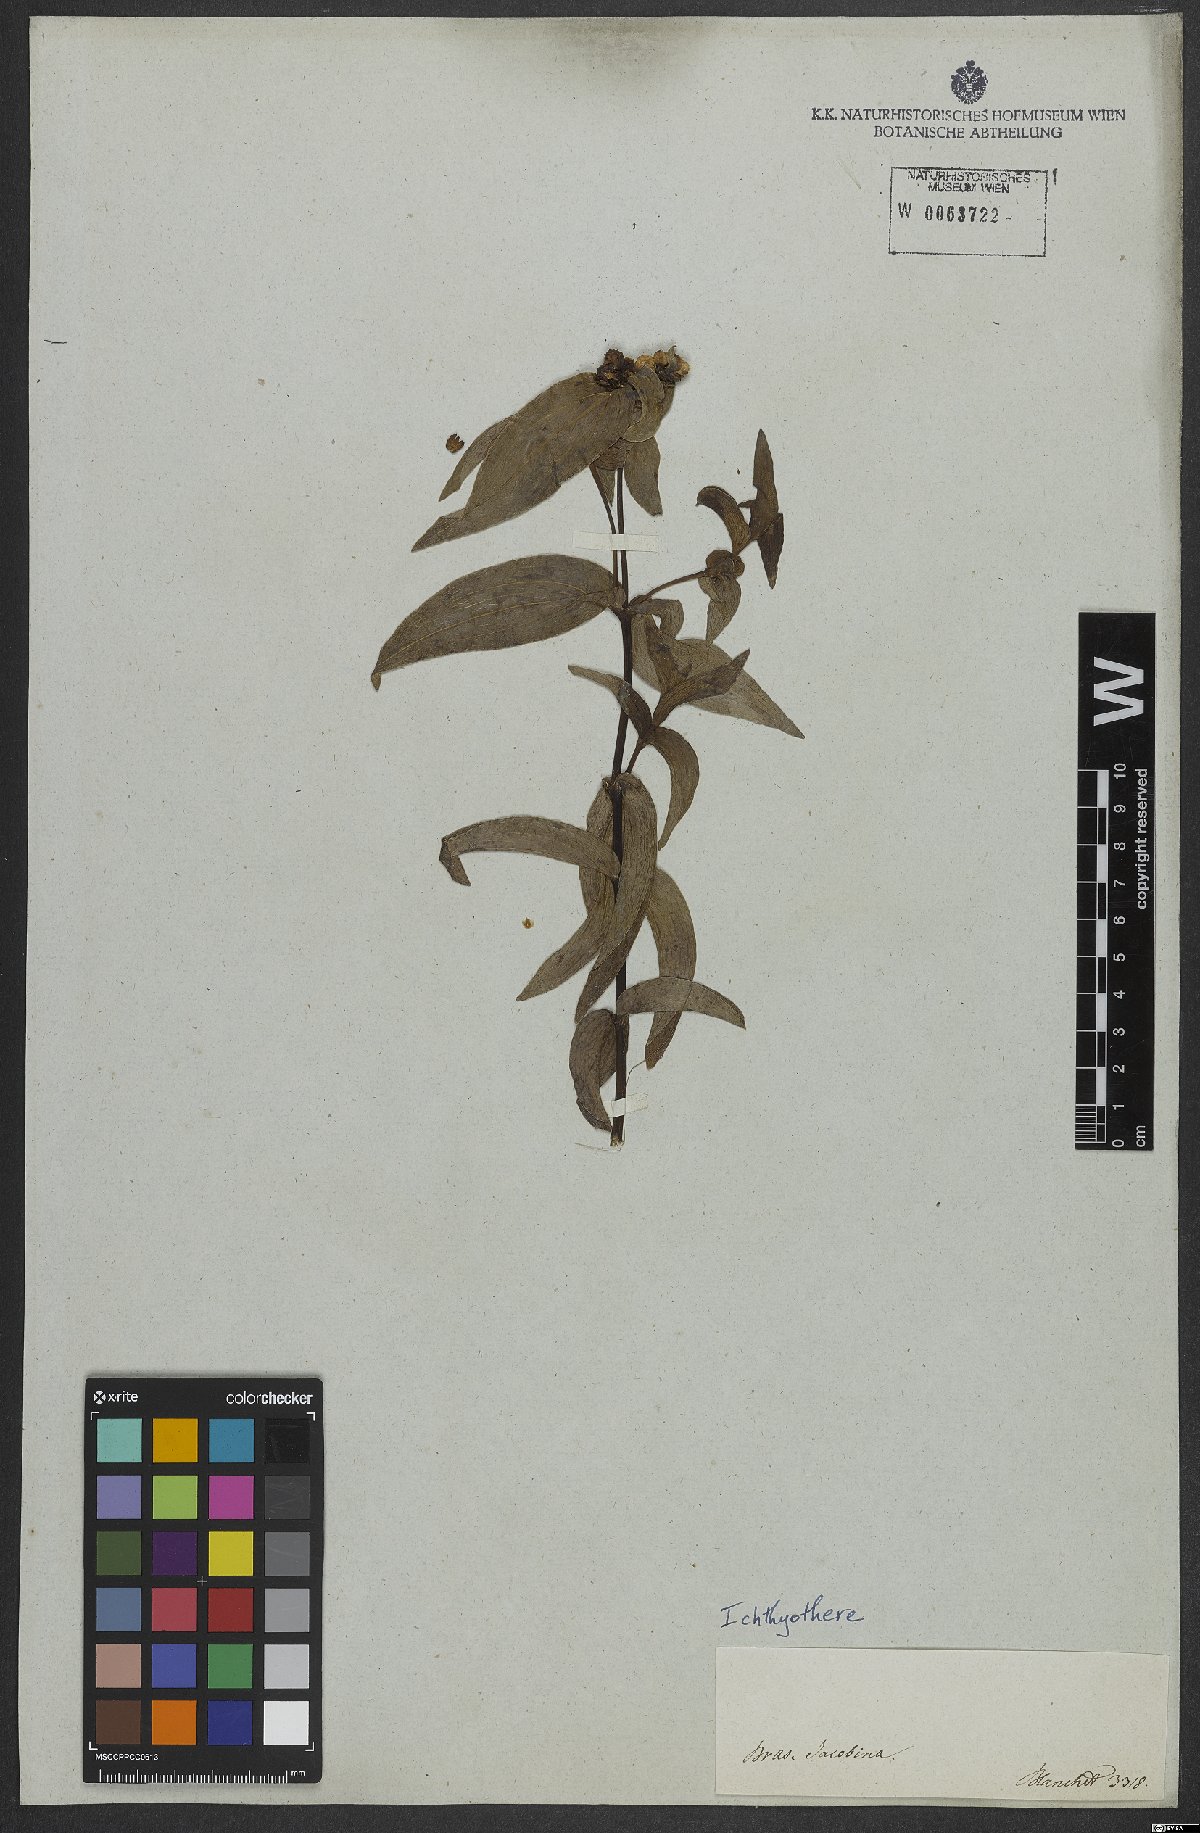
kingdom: Plantae
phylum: Tracheophyta
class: Magnoliopsida
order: Asterales
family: Asteraceae
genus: Ichthyothere
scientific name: Ichthyothere cunabi
